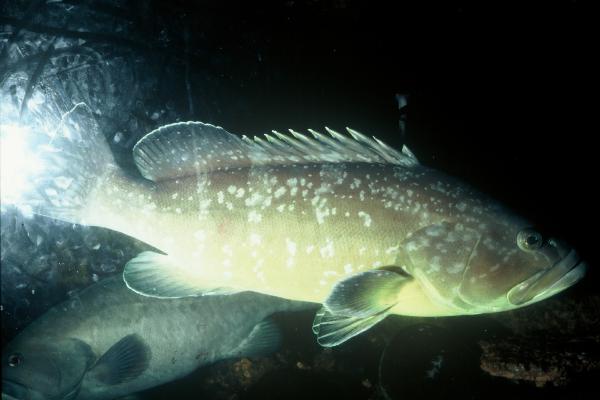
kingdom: Animalia
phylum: Chordata
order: Perciformes
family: Serranidae
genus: Epinephelus
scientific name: Epinephelus marginatus
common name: Dusky grouper
